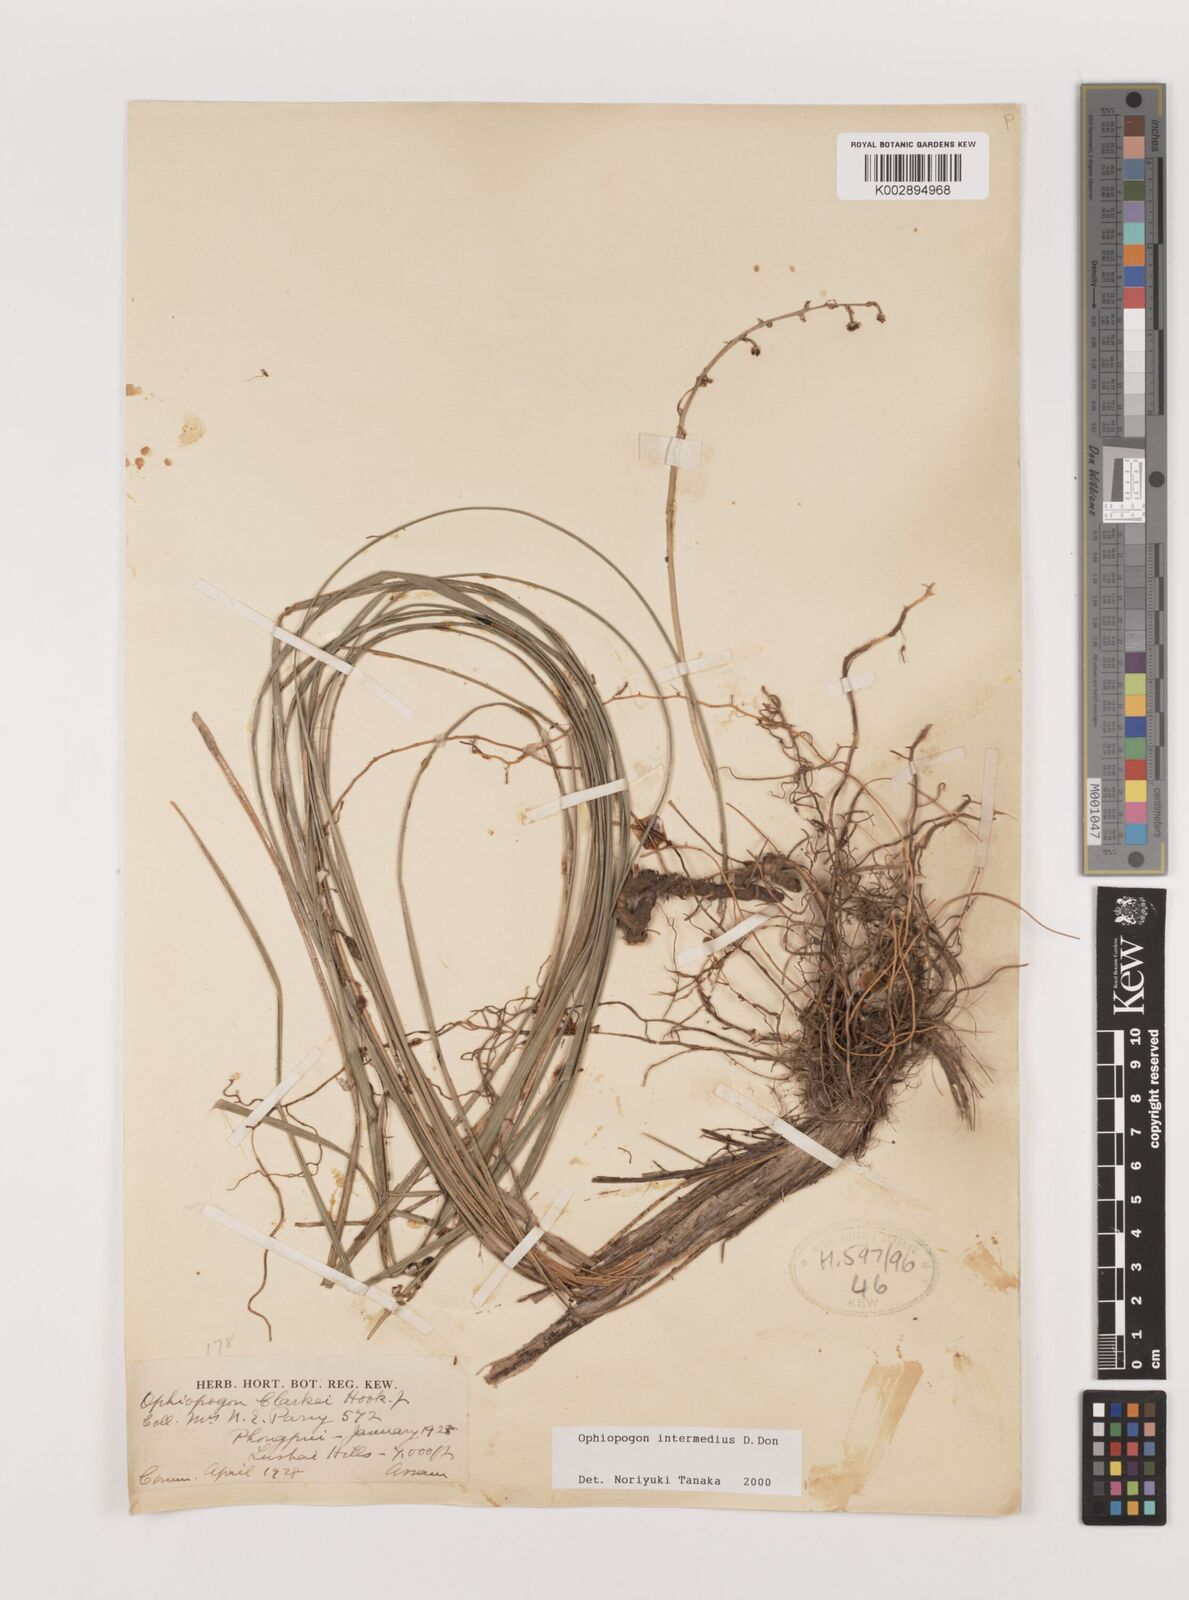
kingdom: Plantae
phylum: Tracheophyta
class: Liliopsida
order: Asparagales
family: Asparagaceae
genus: Ophiopogon
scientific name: Ophiopogon intermedius
